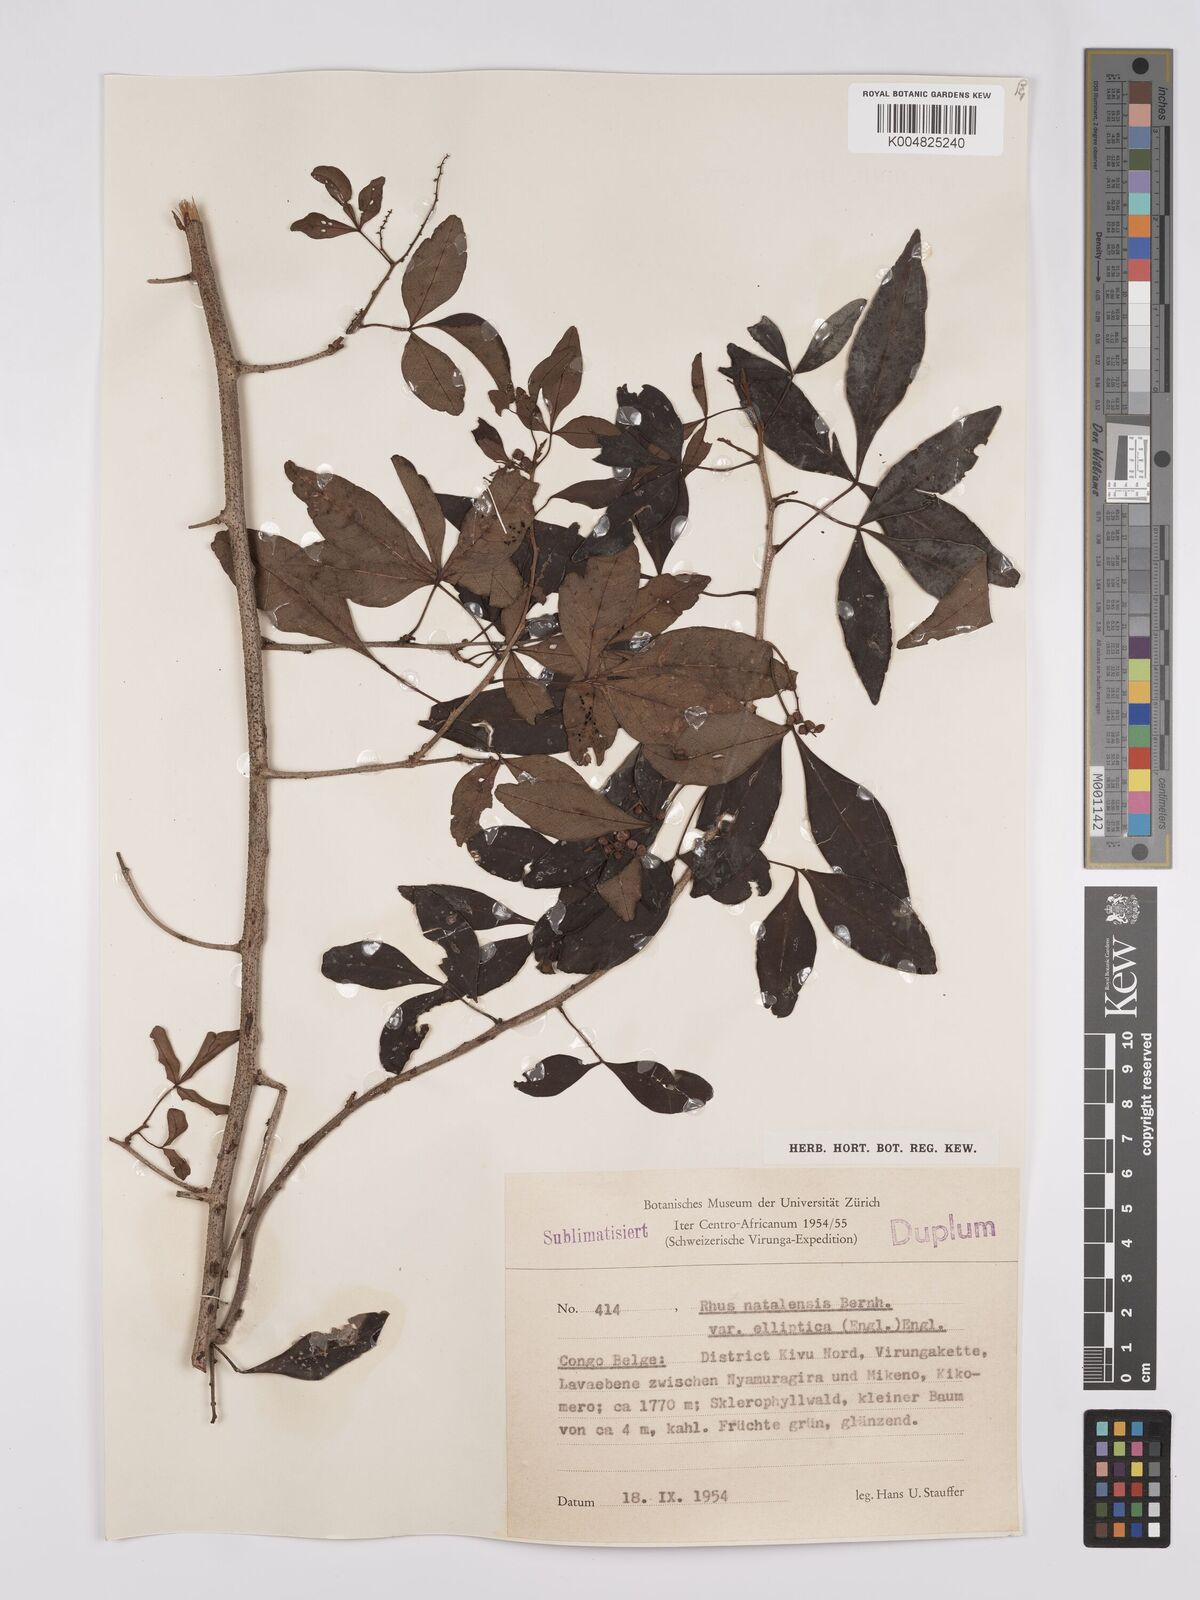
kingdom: Plantae
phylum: Tracheophyta
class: Magnoliopsida
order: Sapindales
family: Anacardiaceae
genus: Searsia
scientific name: Searsia natalensis
